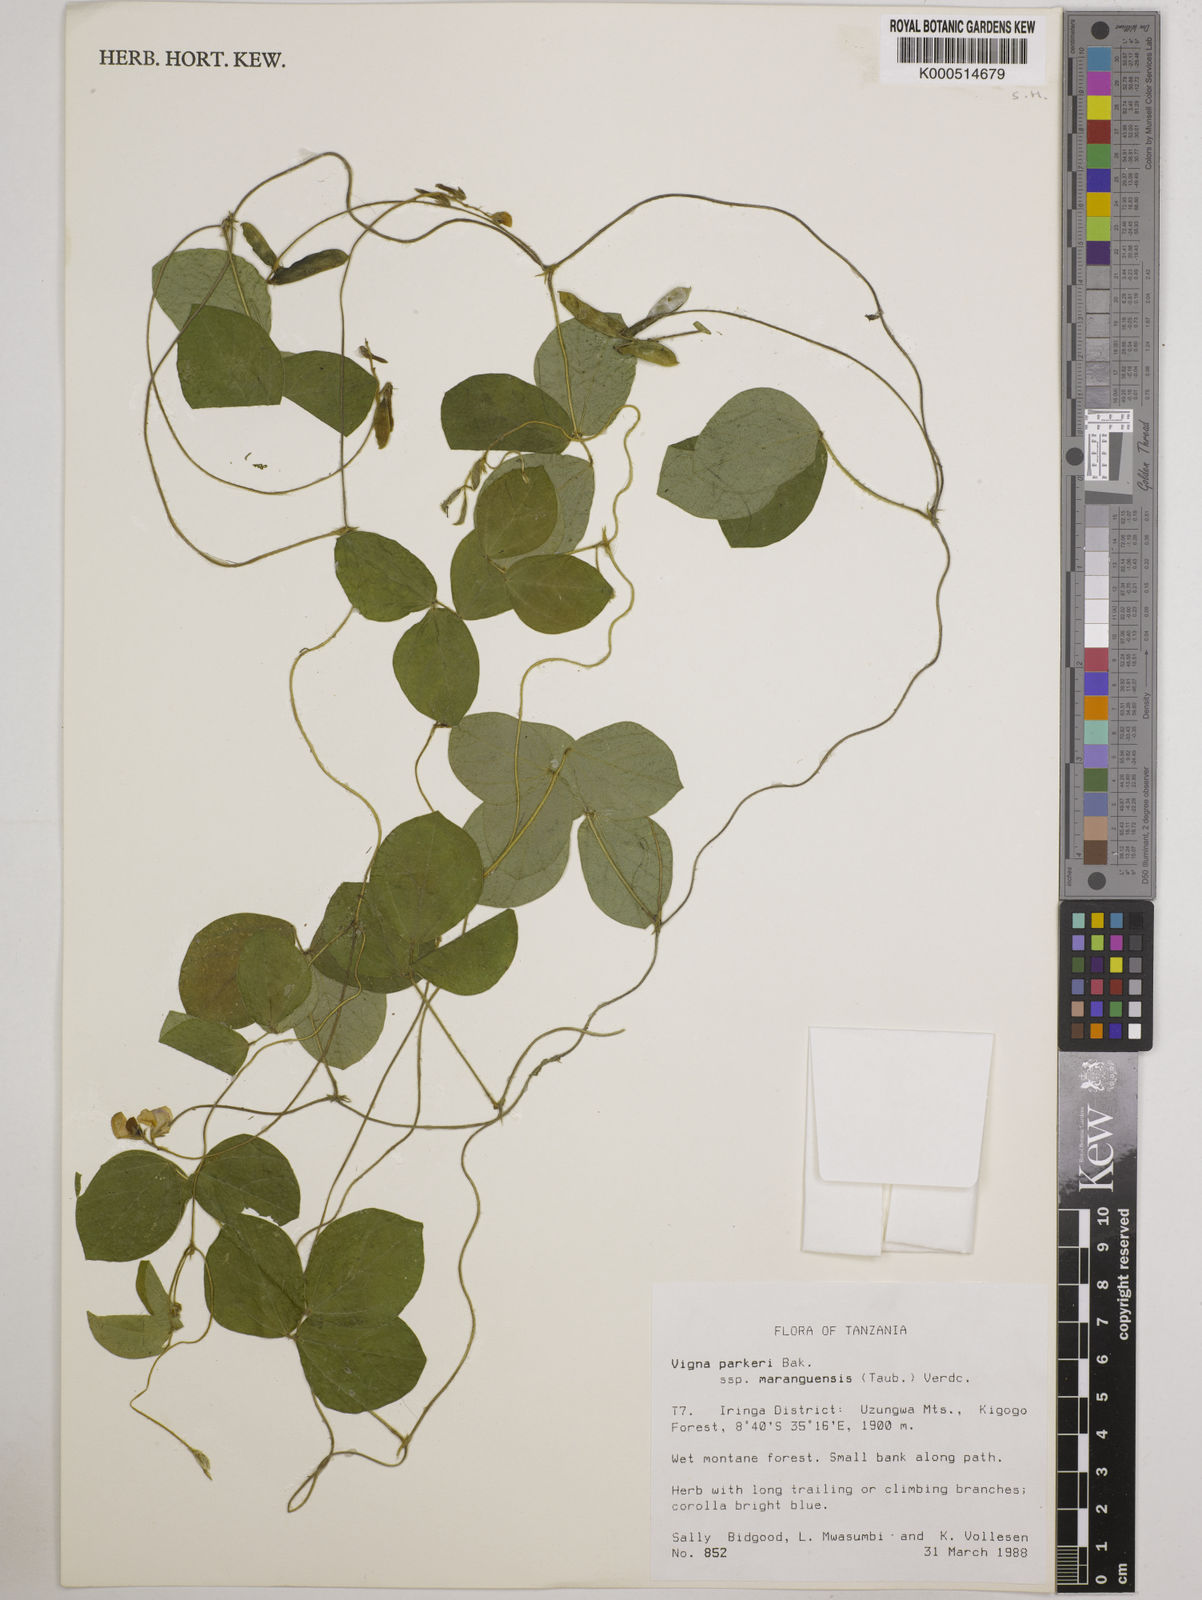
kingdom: Plantae
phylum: Tracheophyta
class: Magnoliopsida
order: Fabales
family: Fabaceae
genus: Vigna
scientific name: Vigna
